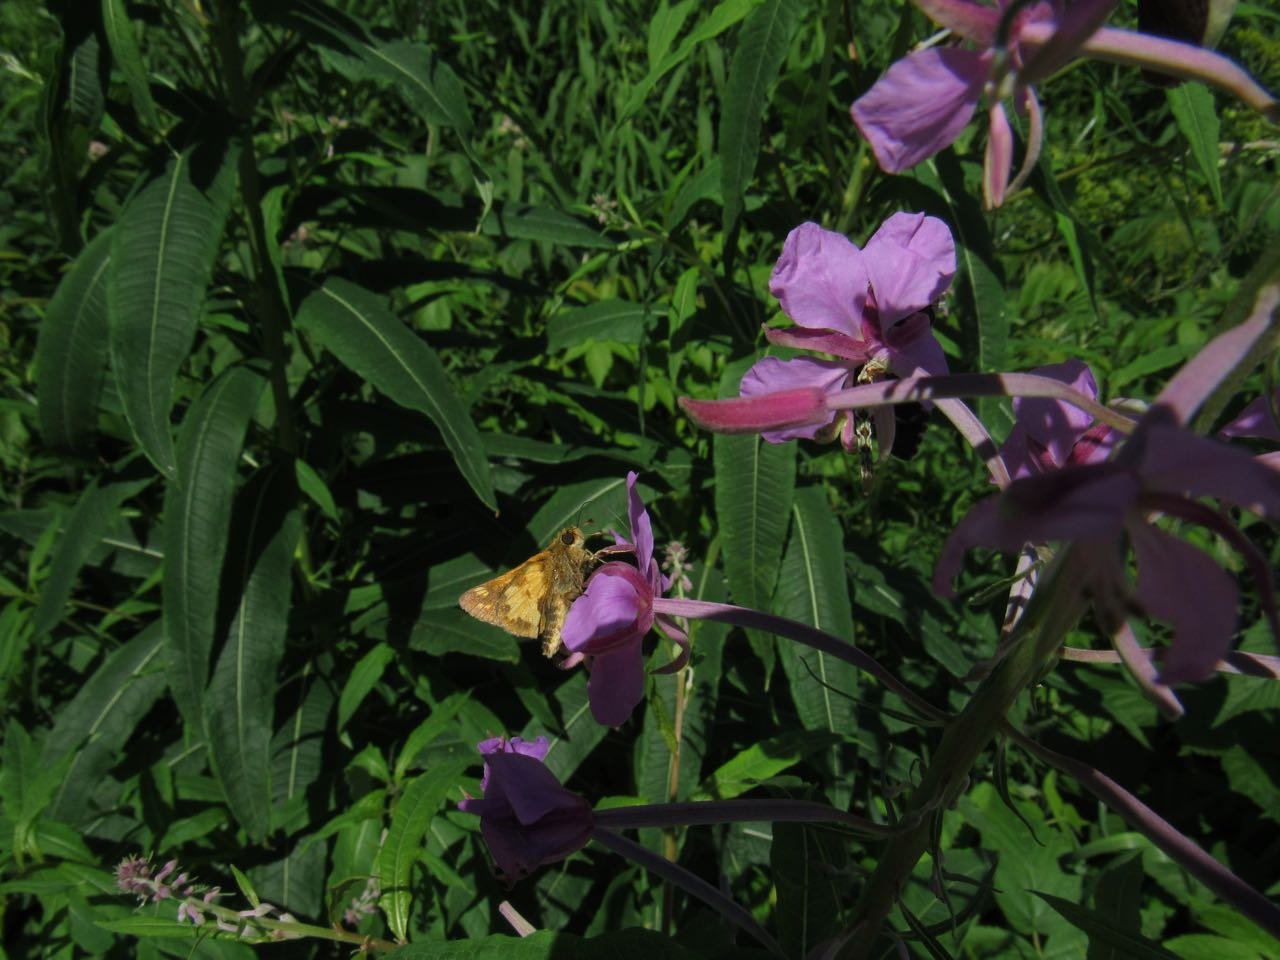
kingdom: Animalia
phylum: Arthropoda
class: Insecta
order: Lepidoptera
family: Hesperiidae
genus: Polites
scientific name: Polites coras
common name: Peck's Skipper
